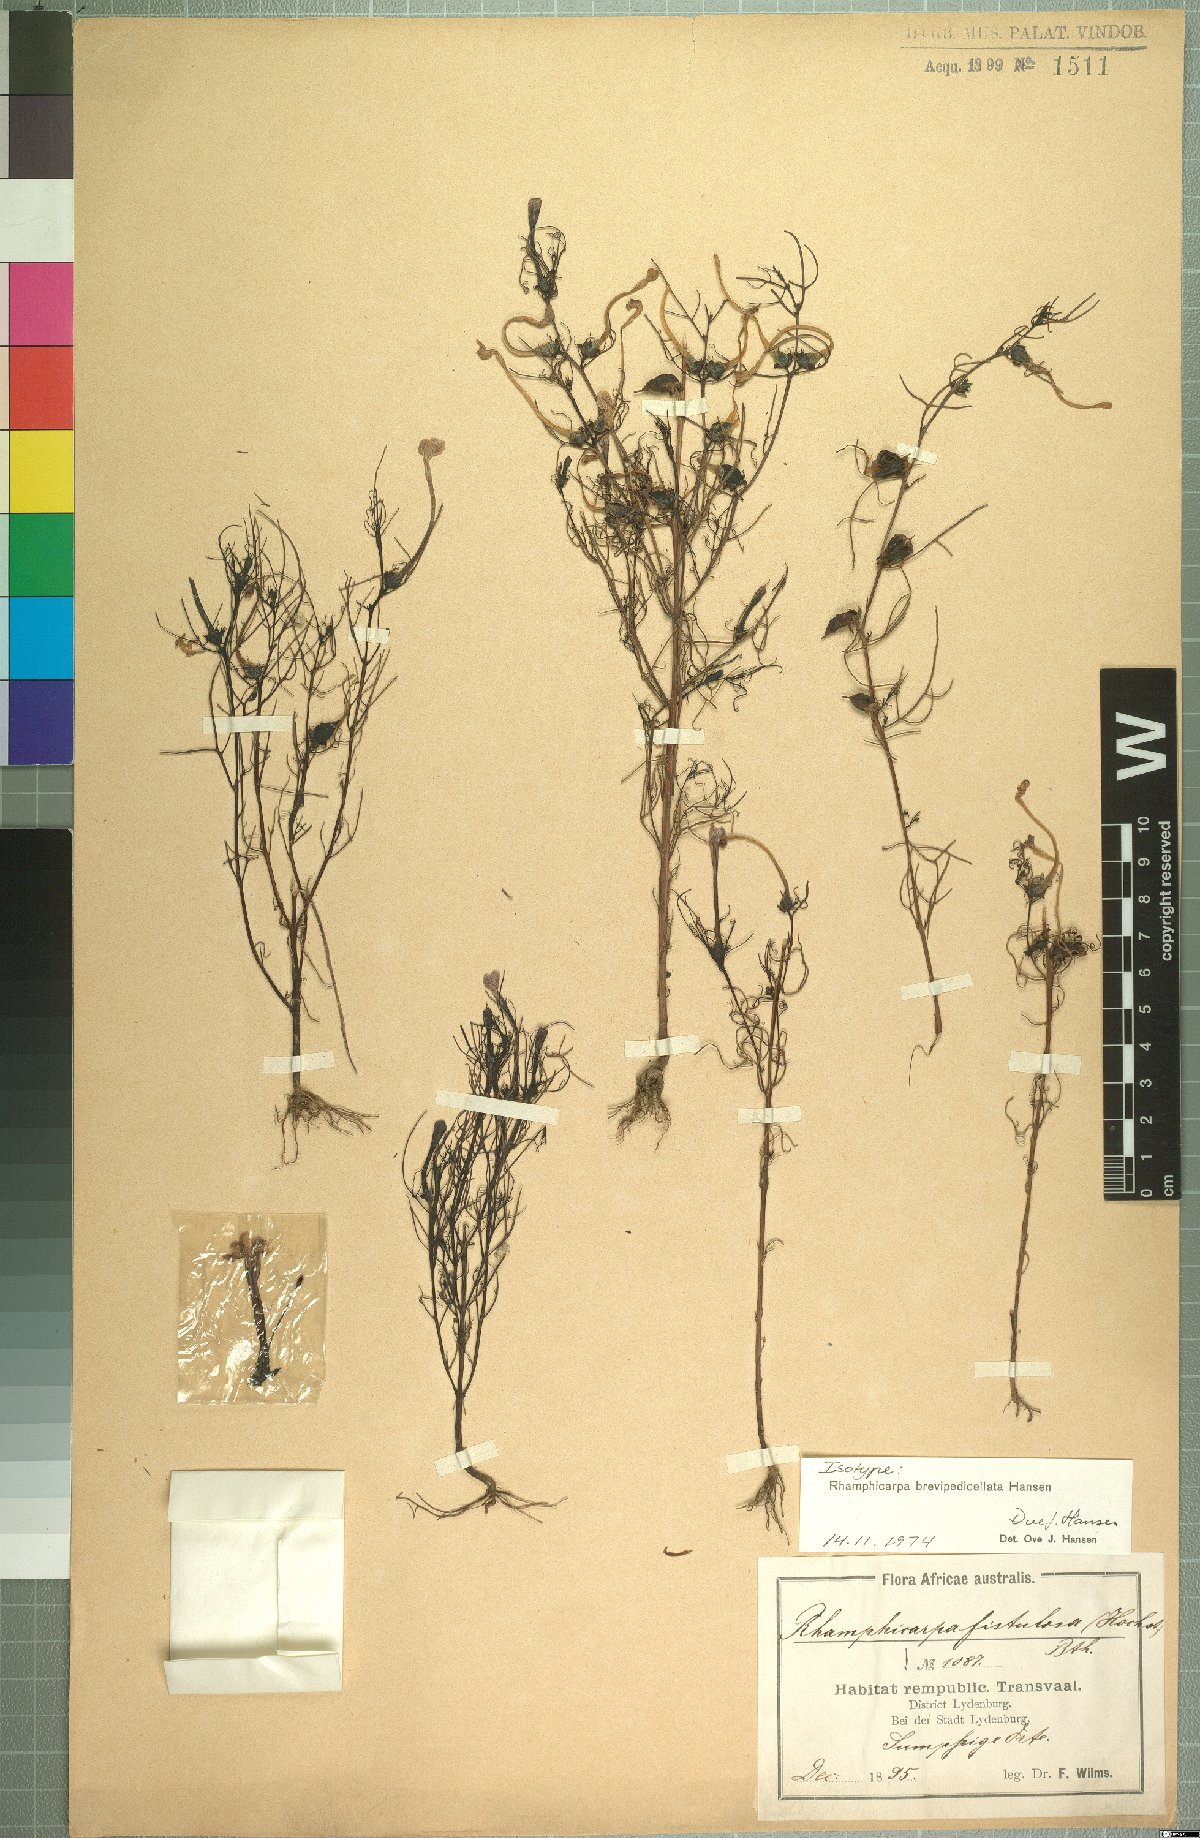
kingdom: Plantae
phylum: Tracheophyta
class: Magnoliopsida
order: Lamiales
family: Orobanchaceae
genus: Rhamphicarpa
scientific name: Rhamphicarpa brevipedicellata
